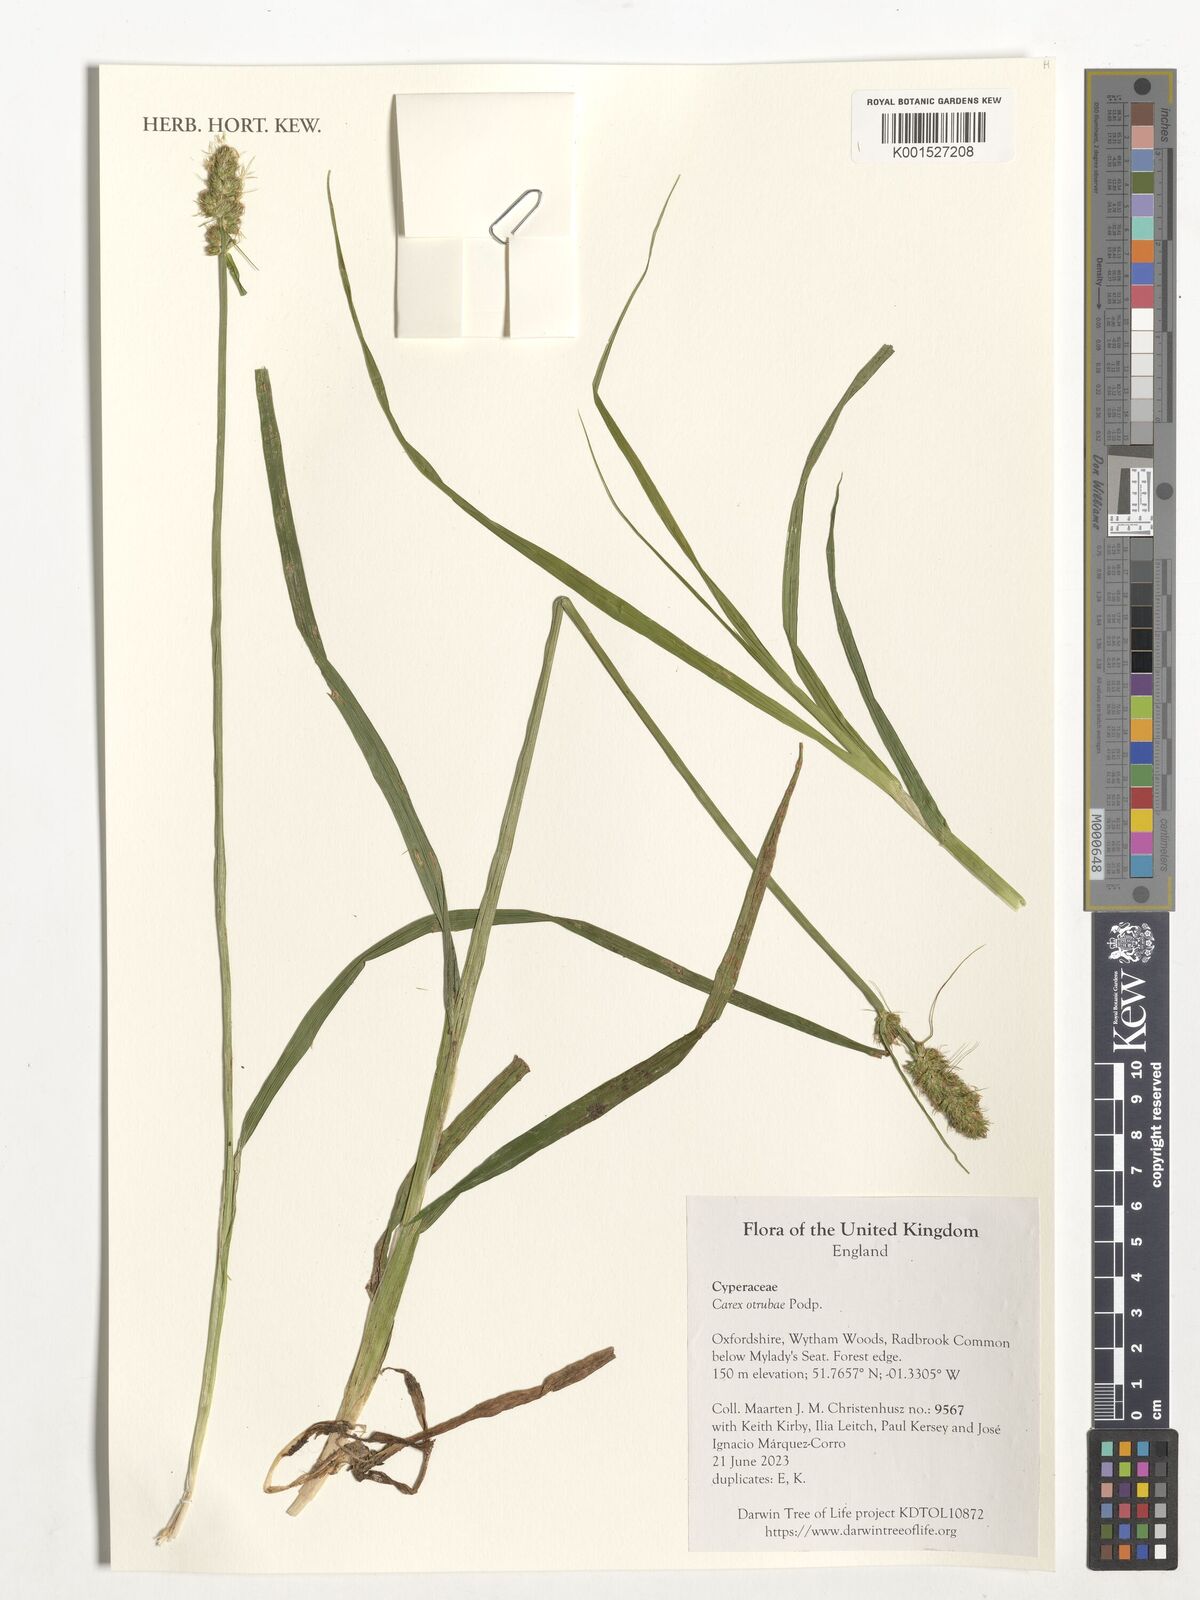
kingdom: Plantae
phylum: Tracheophyta
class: Liliopsida
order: Poales
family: Cyperaceae
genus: Carex
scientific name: Carex otrubae
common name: False fox-sedge
